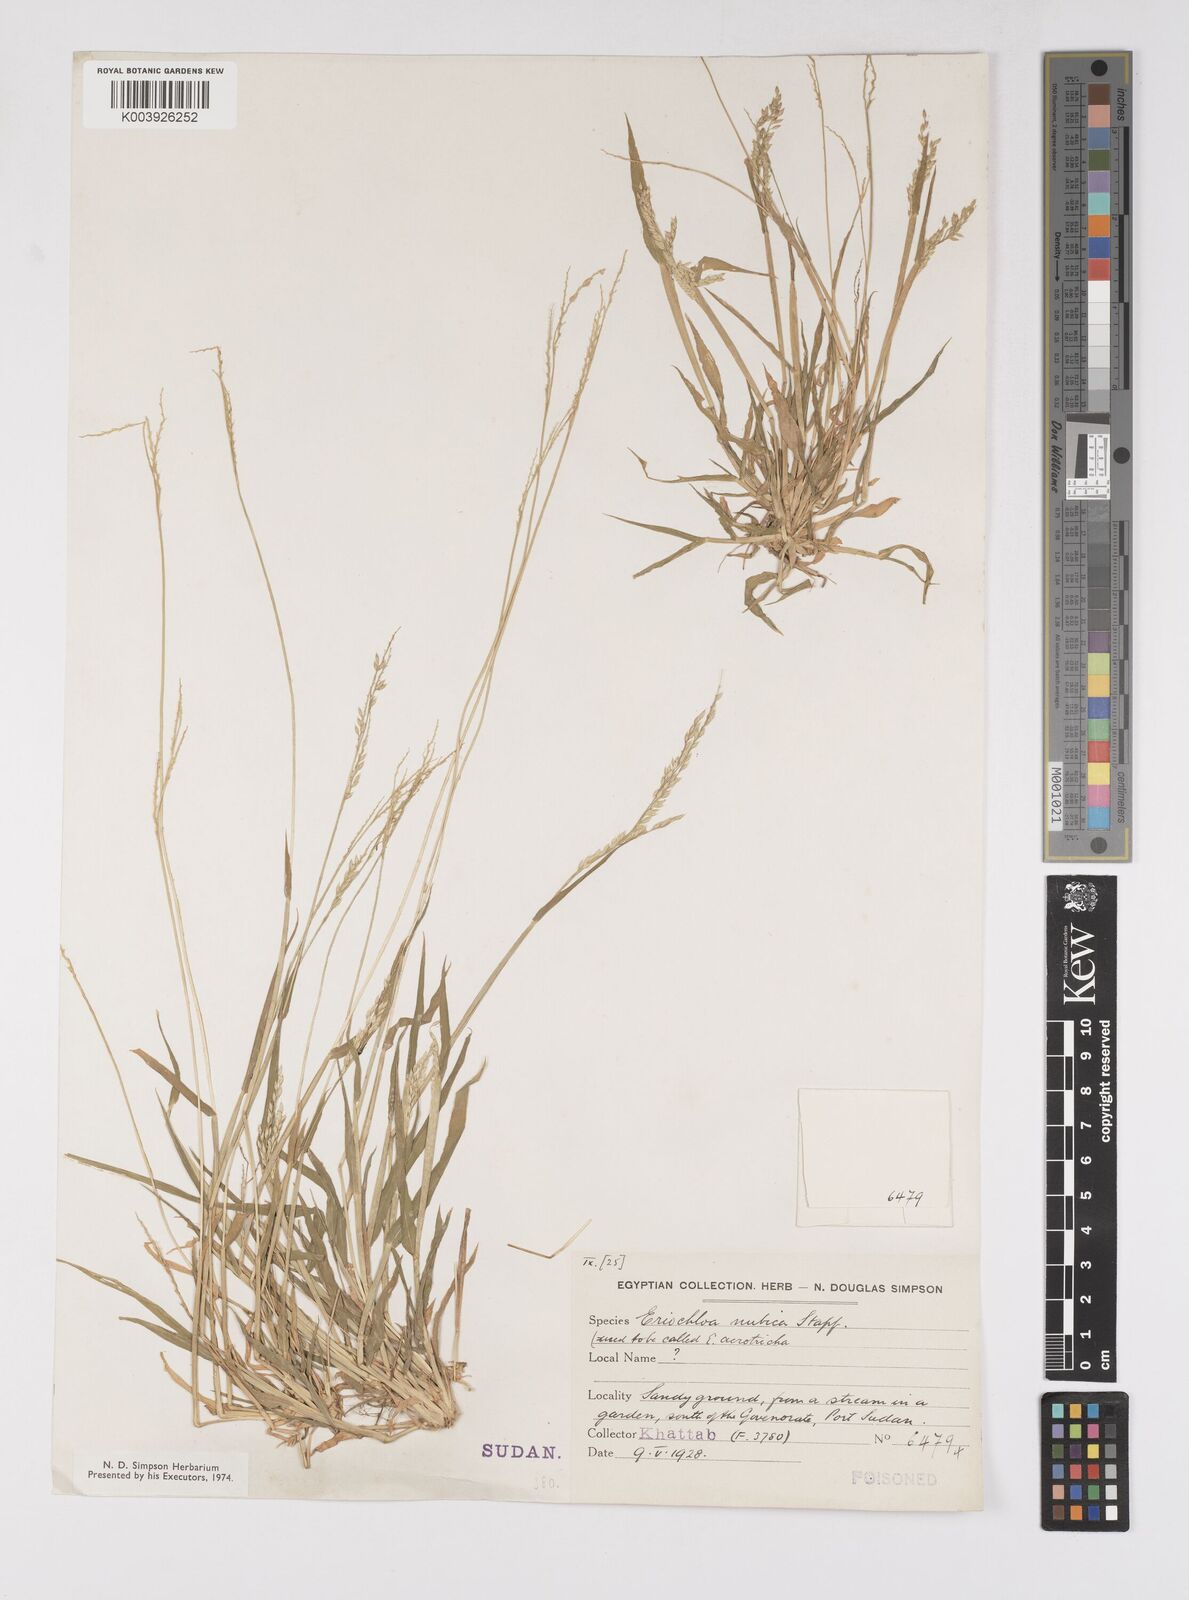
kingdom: Plantae
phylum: Tracheophyta
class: Liliopsida
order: Poales
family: Poaceae
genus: Eriochloa
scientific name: Eriochloa barbatus
